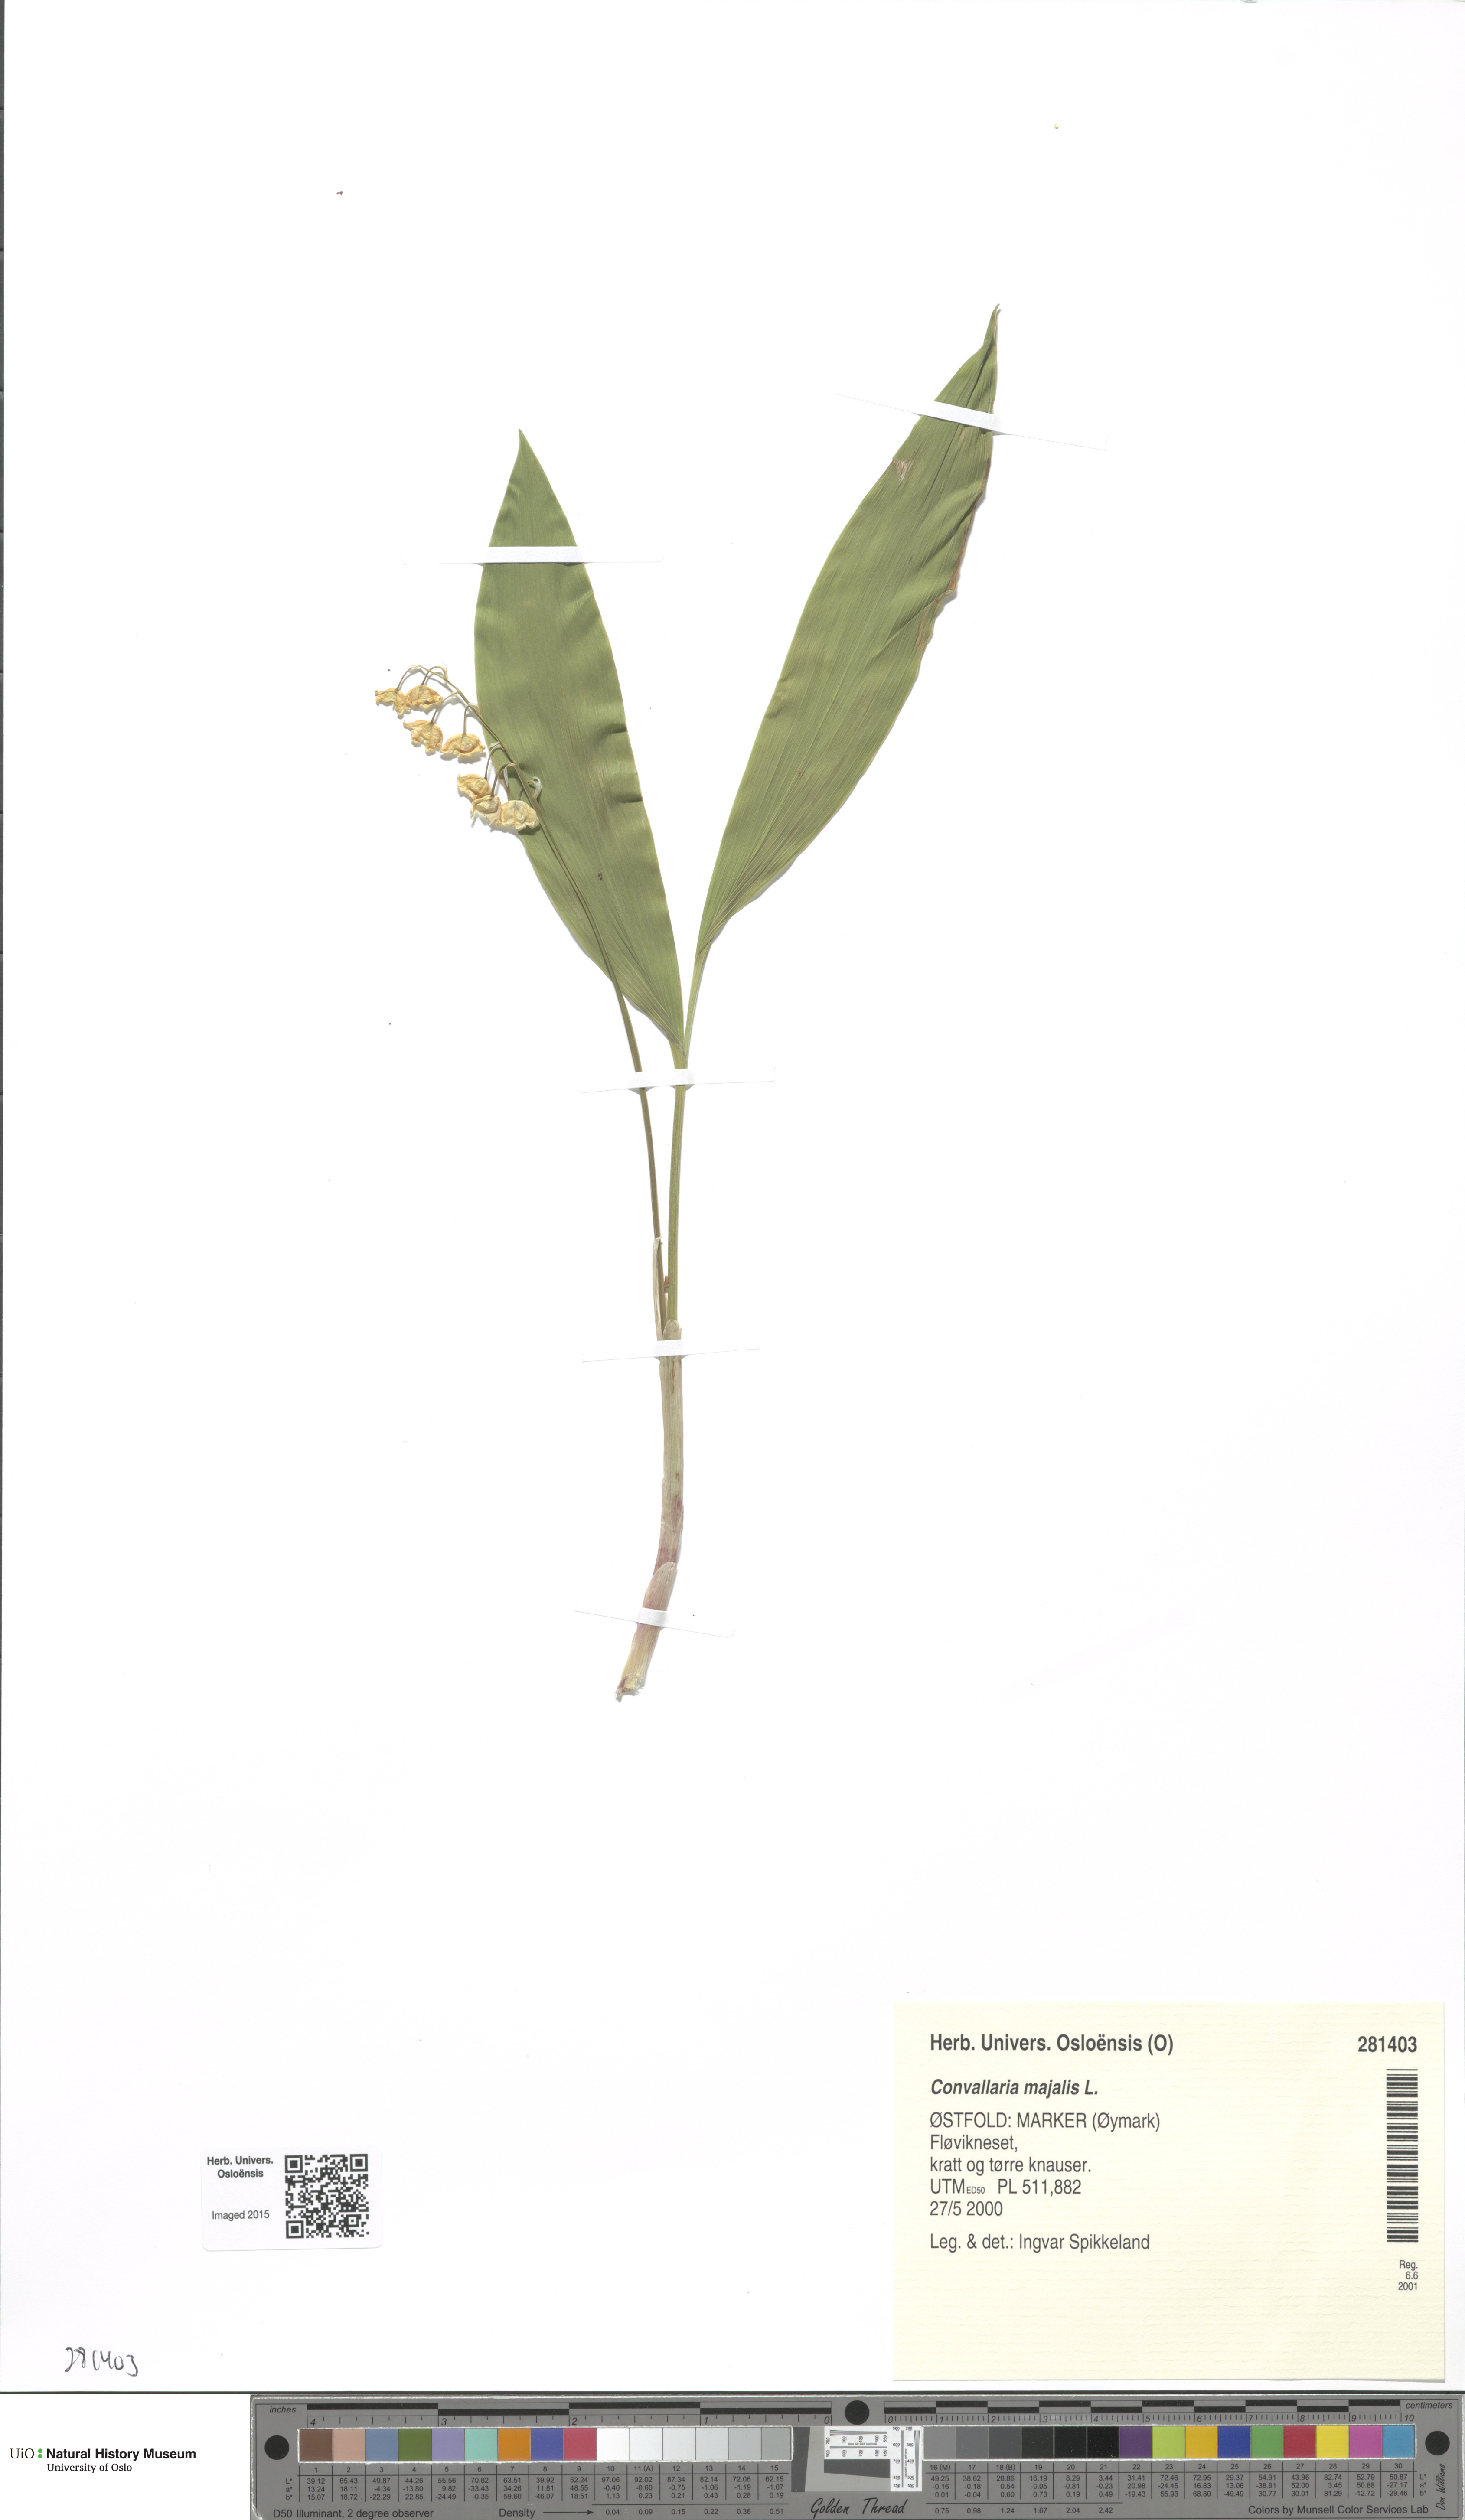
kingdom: Plantae
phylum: Tracheophyta
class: Liliopsida
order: Asparagales
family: Asparagaceae
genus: Convallaria
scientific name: Convallaria majalis
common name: Lily-of-the-valley
